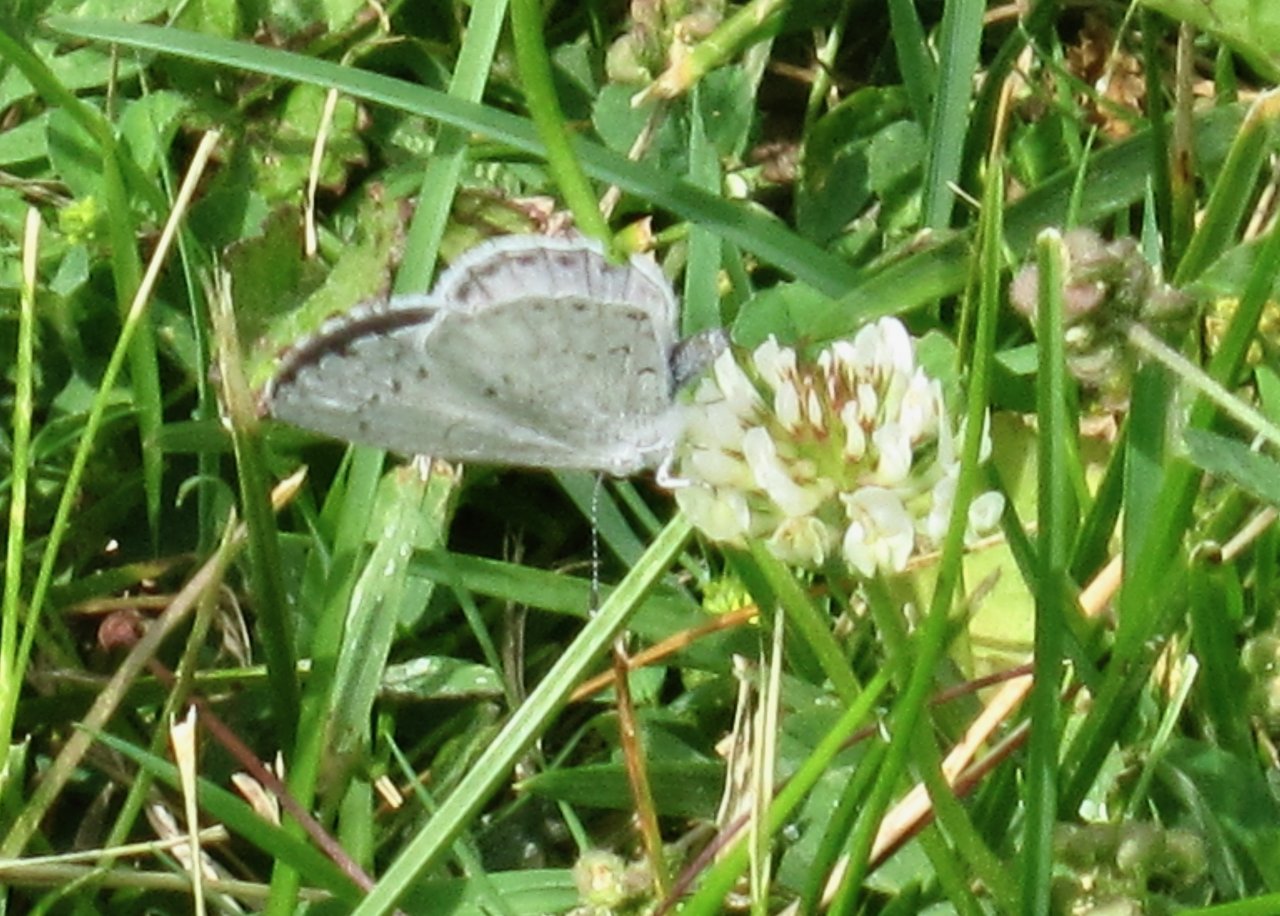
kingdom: Animalia
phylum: Arthropoda
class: Insecta
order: Lepidoptera
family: Lycaenidae
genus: Cyaniris
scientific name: Cyaniris neglecta
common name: Summer Azure
